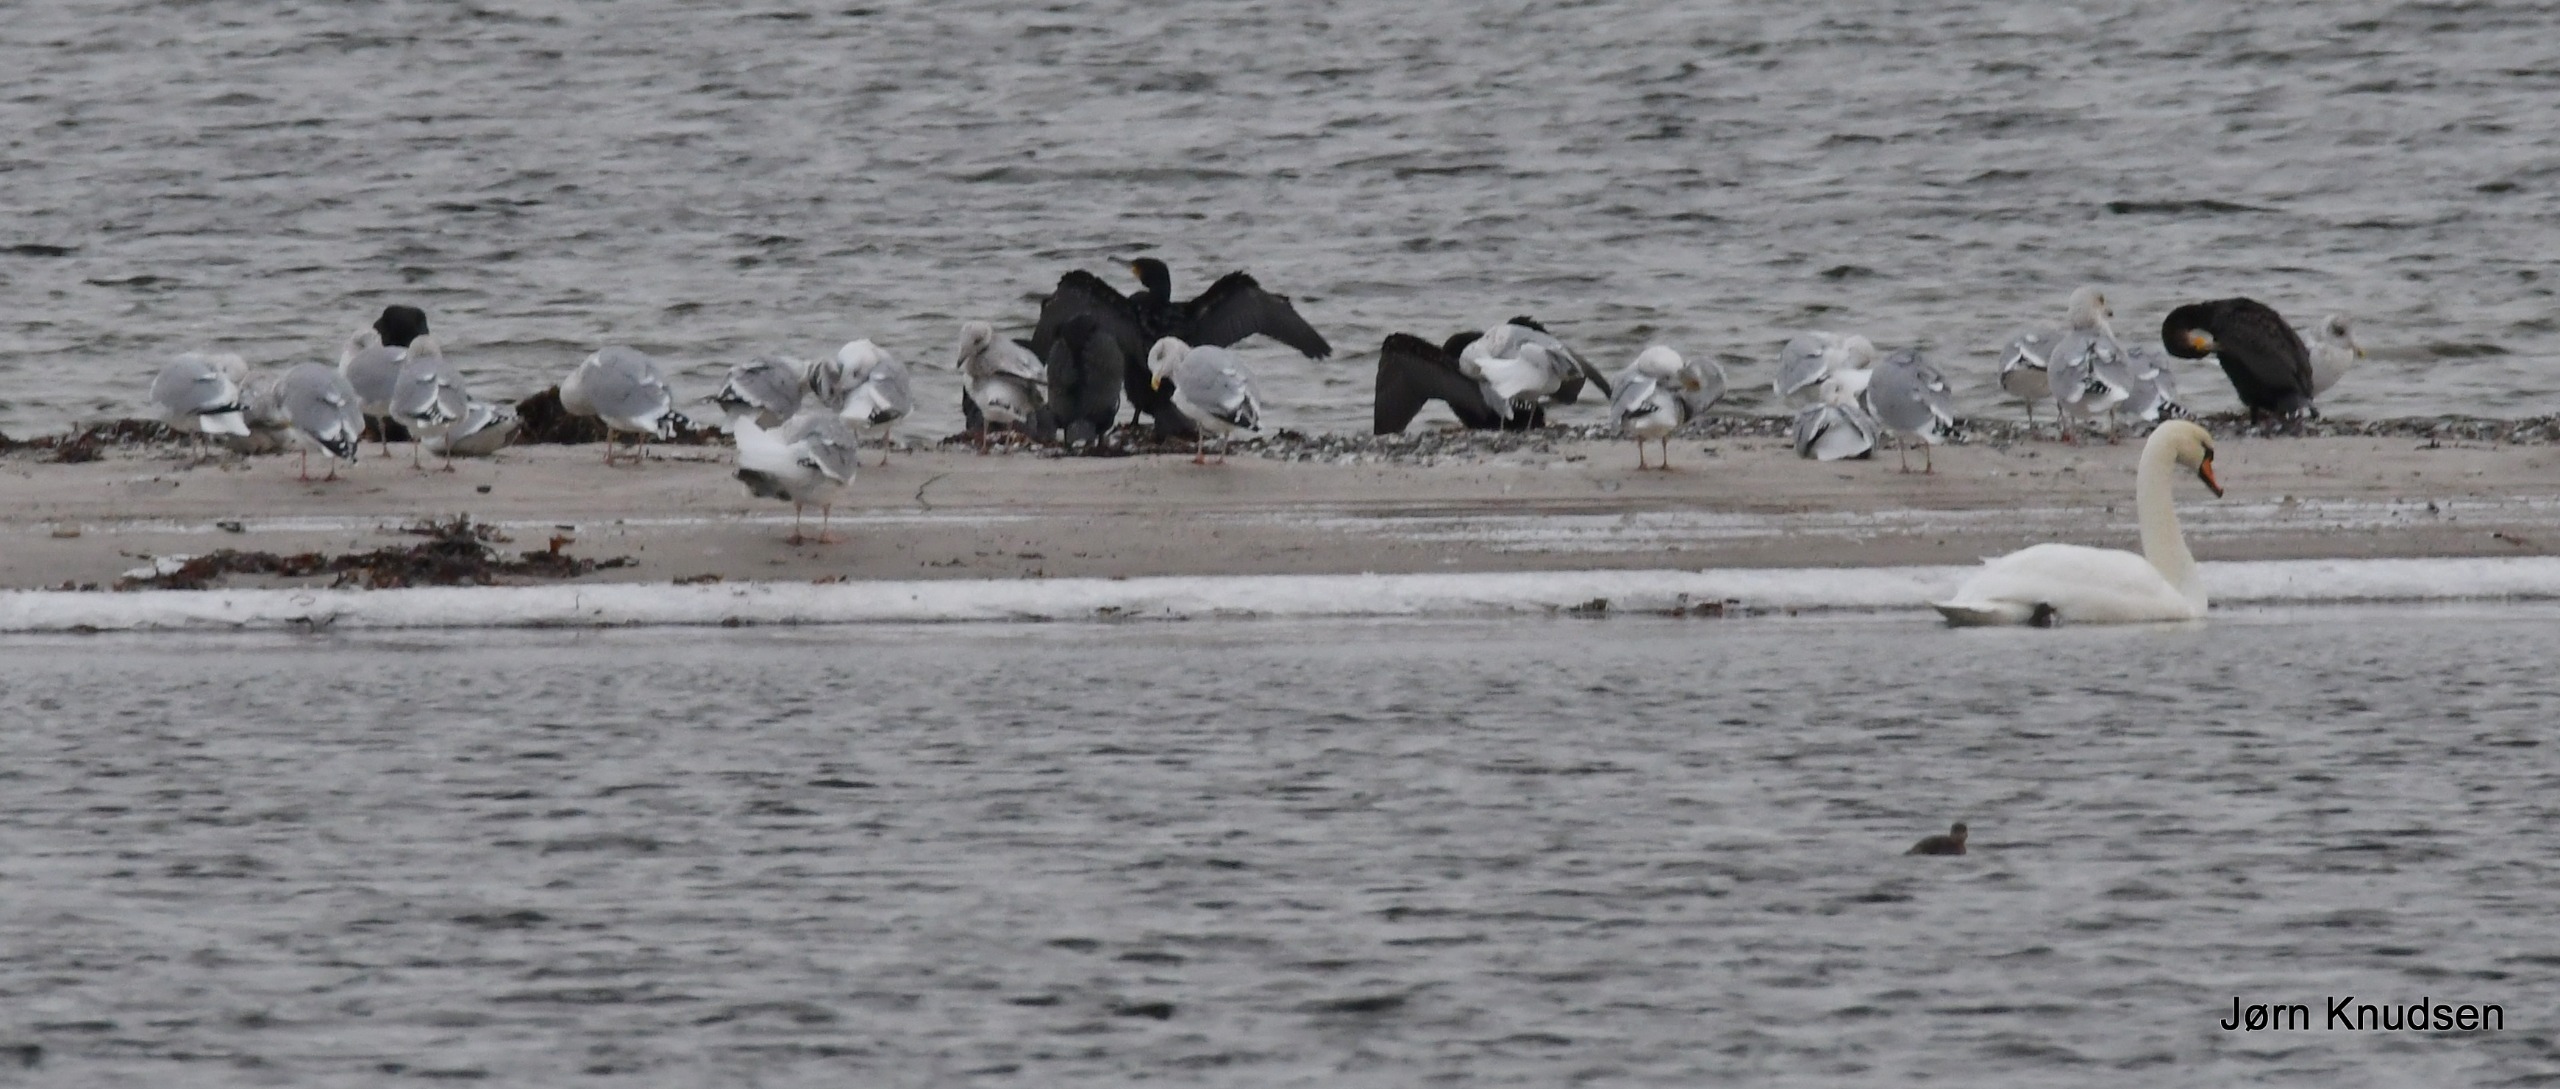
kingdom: Animalia
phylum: Chordata
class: Aves
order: Suliformes
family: Phalacrocoracidae
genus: Phalacrocorax
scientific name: Phalacrocorax carbo
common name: Skarv
